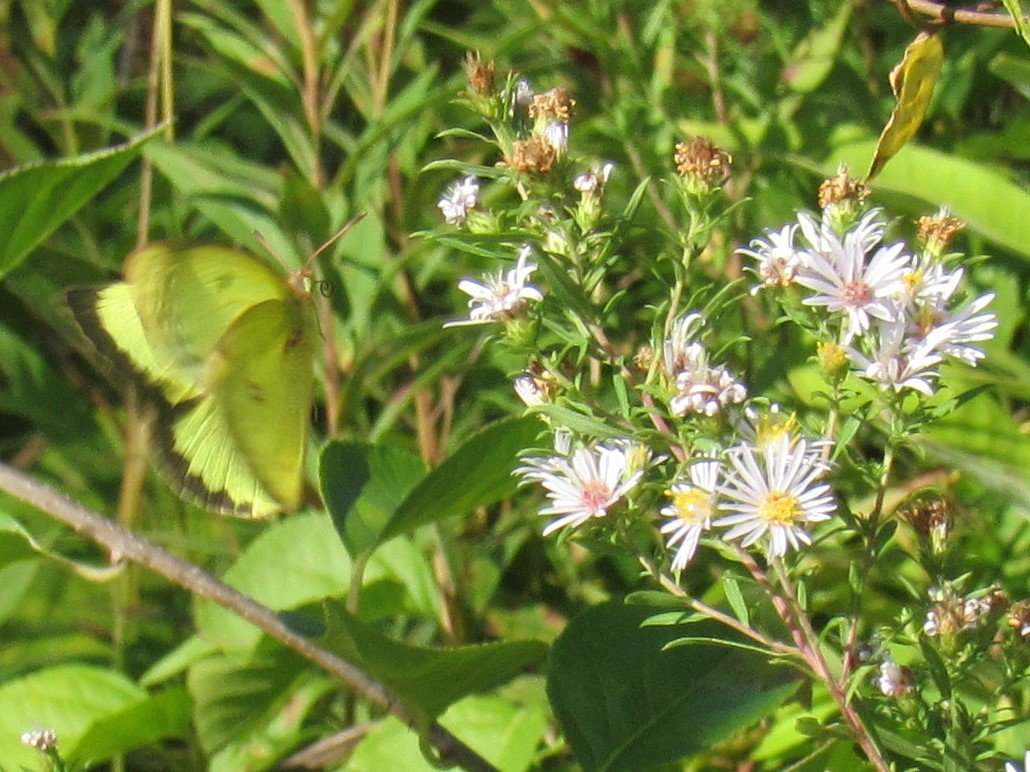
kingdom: Animalia
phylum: Arthropoda
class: Insecta
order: Lepidoptera
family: Pieridae
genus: Colias
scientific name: Colias philodice
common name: Clouded Sulphur
